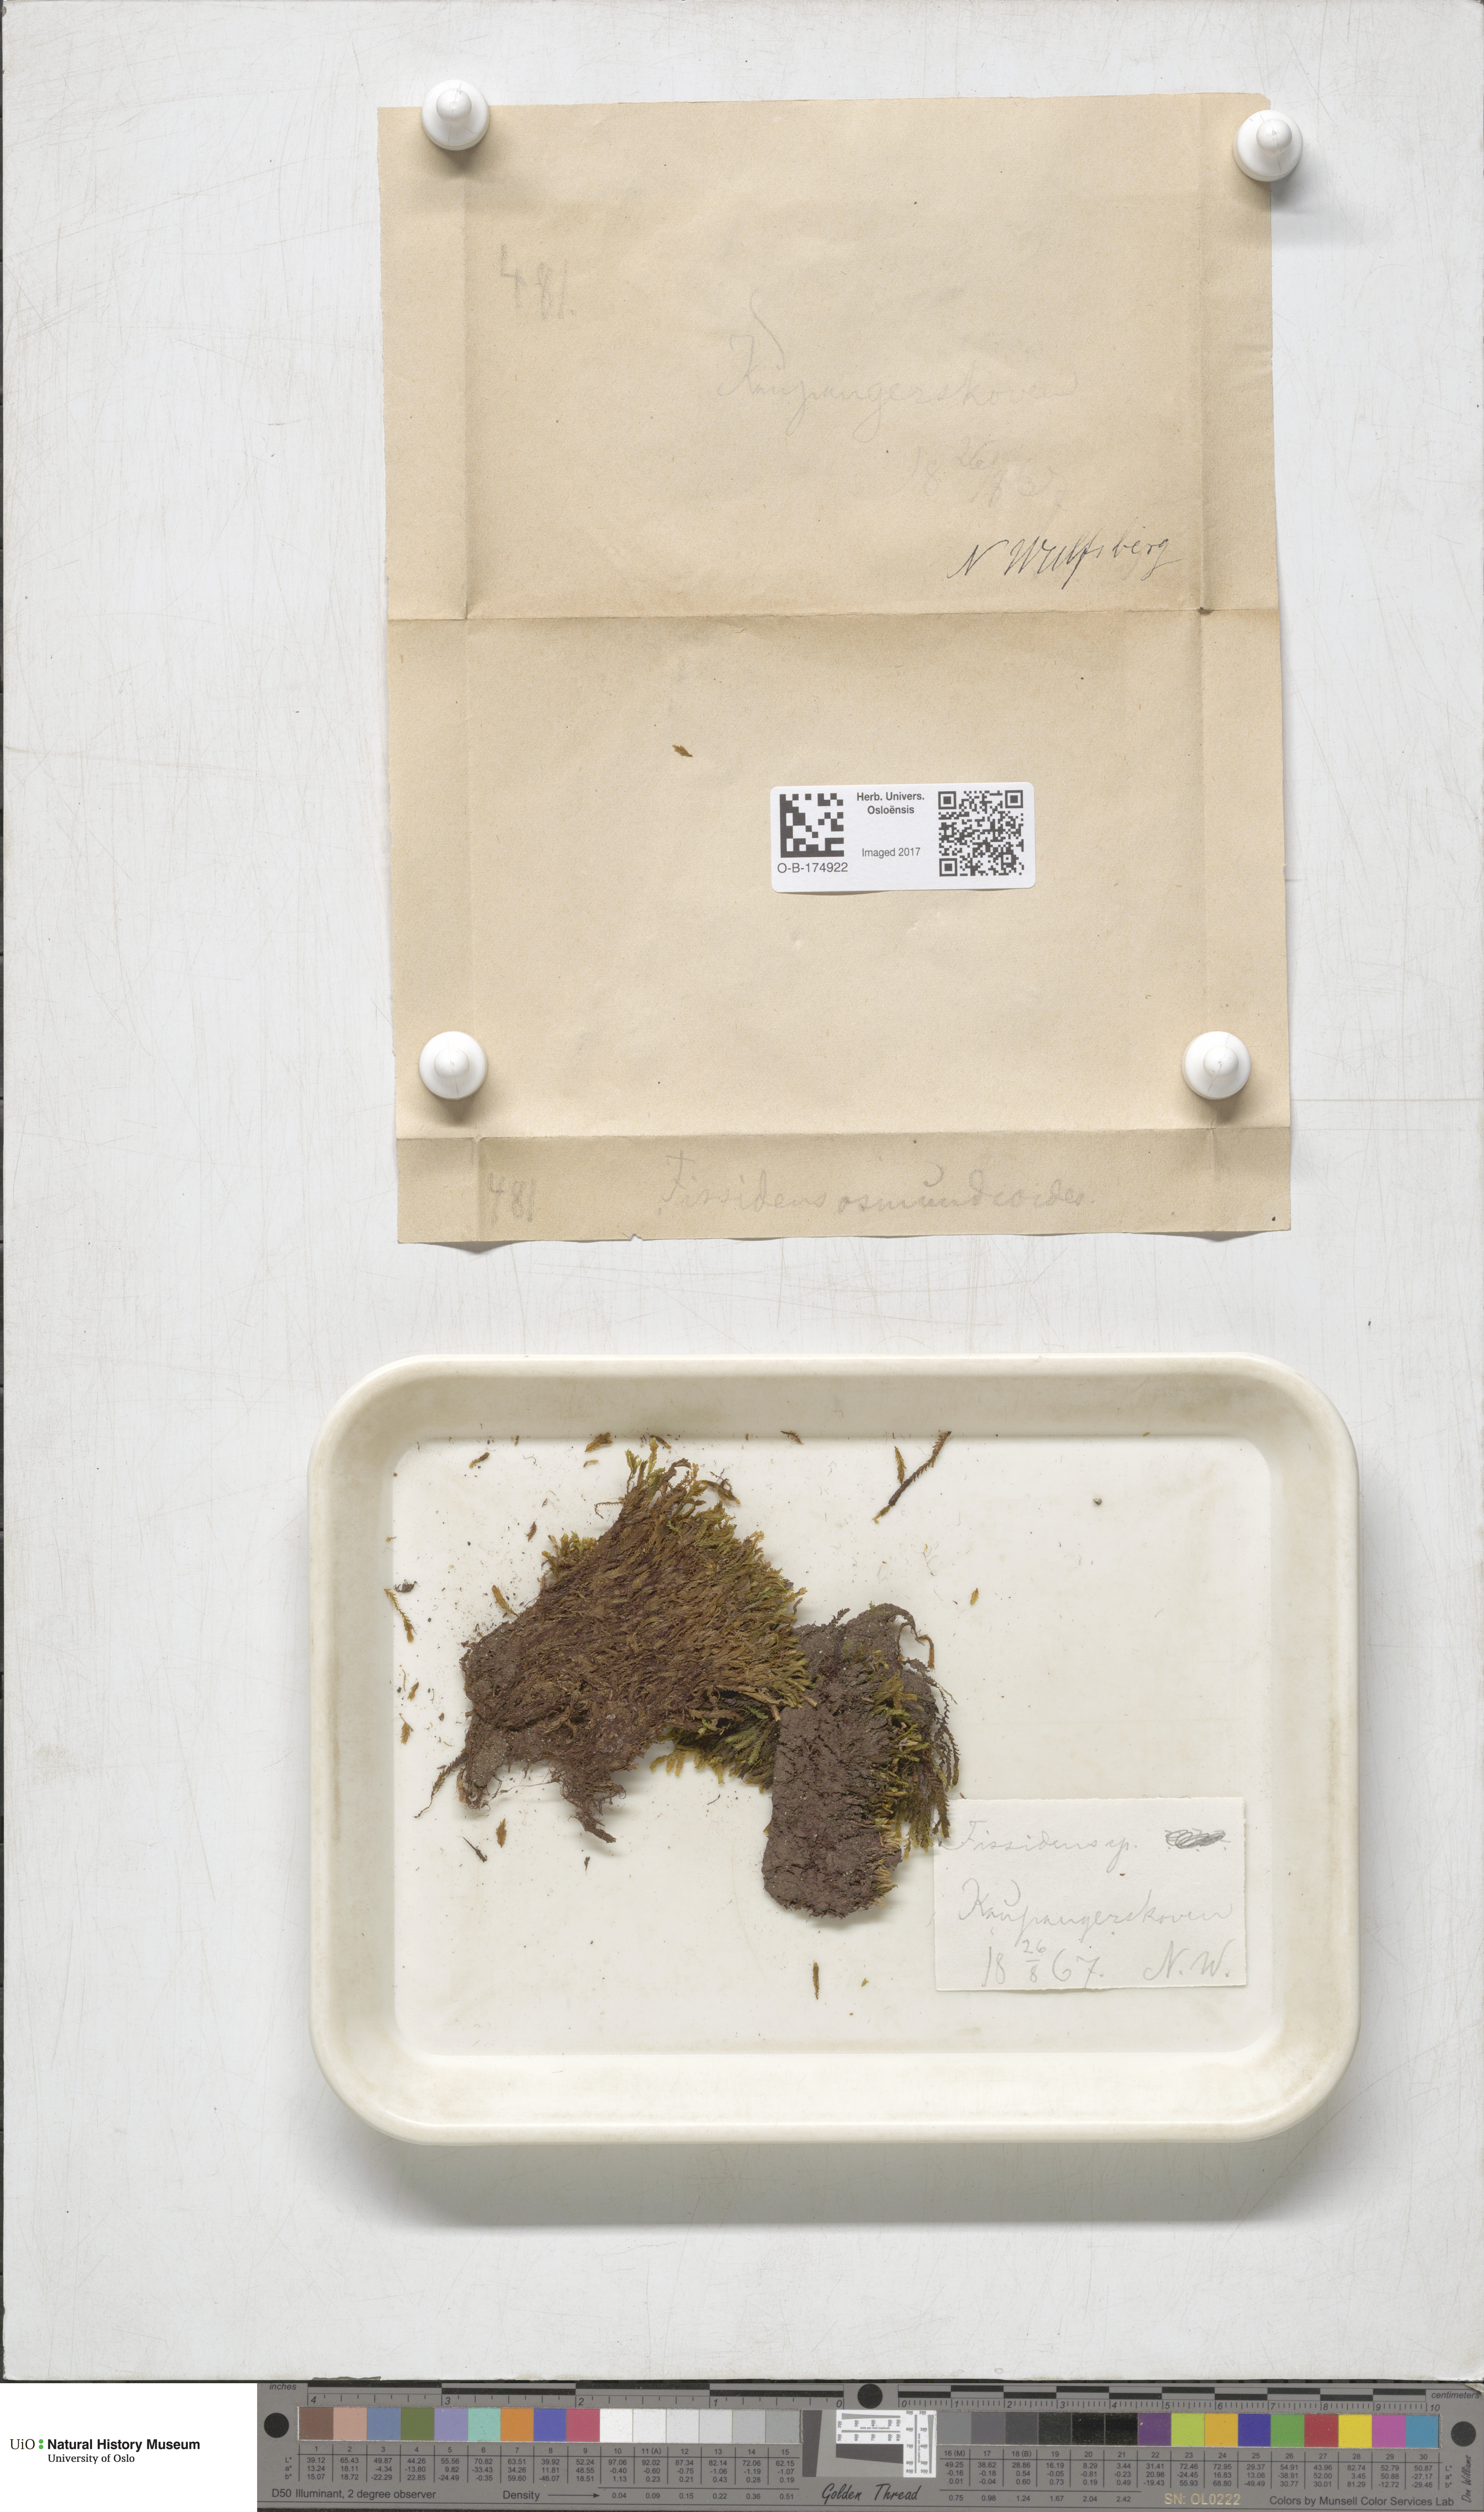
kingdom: Plantae
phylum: Bryophyta
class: Bryopsida
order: Dicranales
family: Fissidentaceae
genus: Fissidens
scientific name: Fissidens osmundoides
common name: Purple-stalked pocket moss
